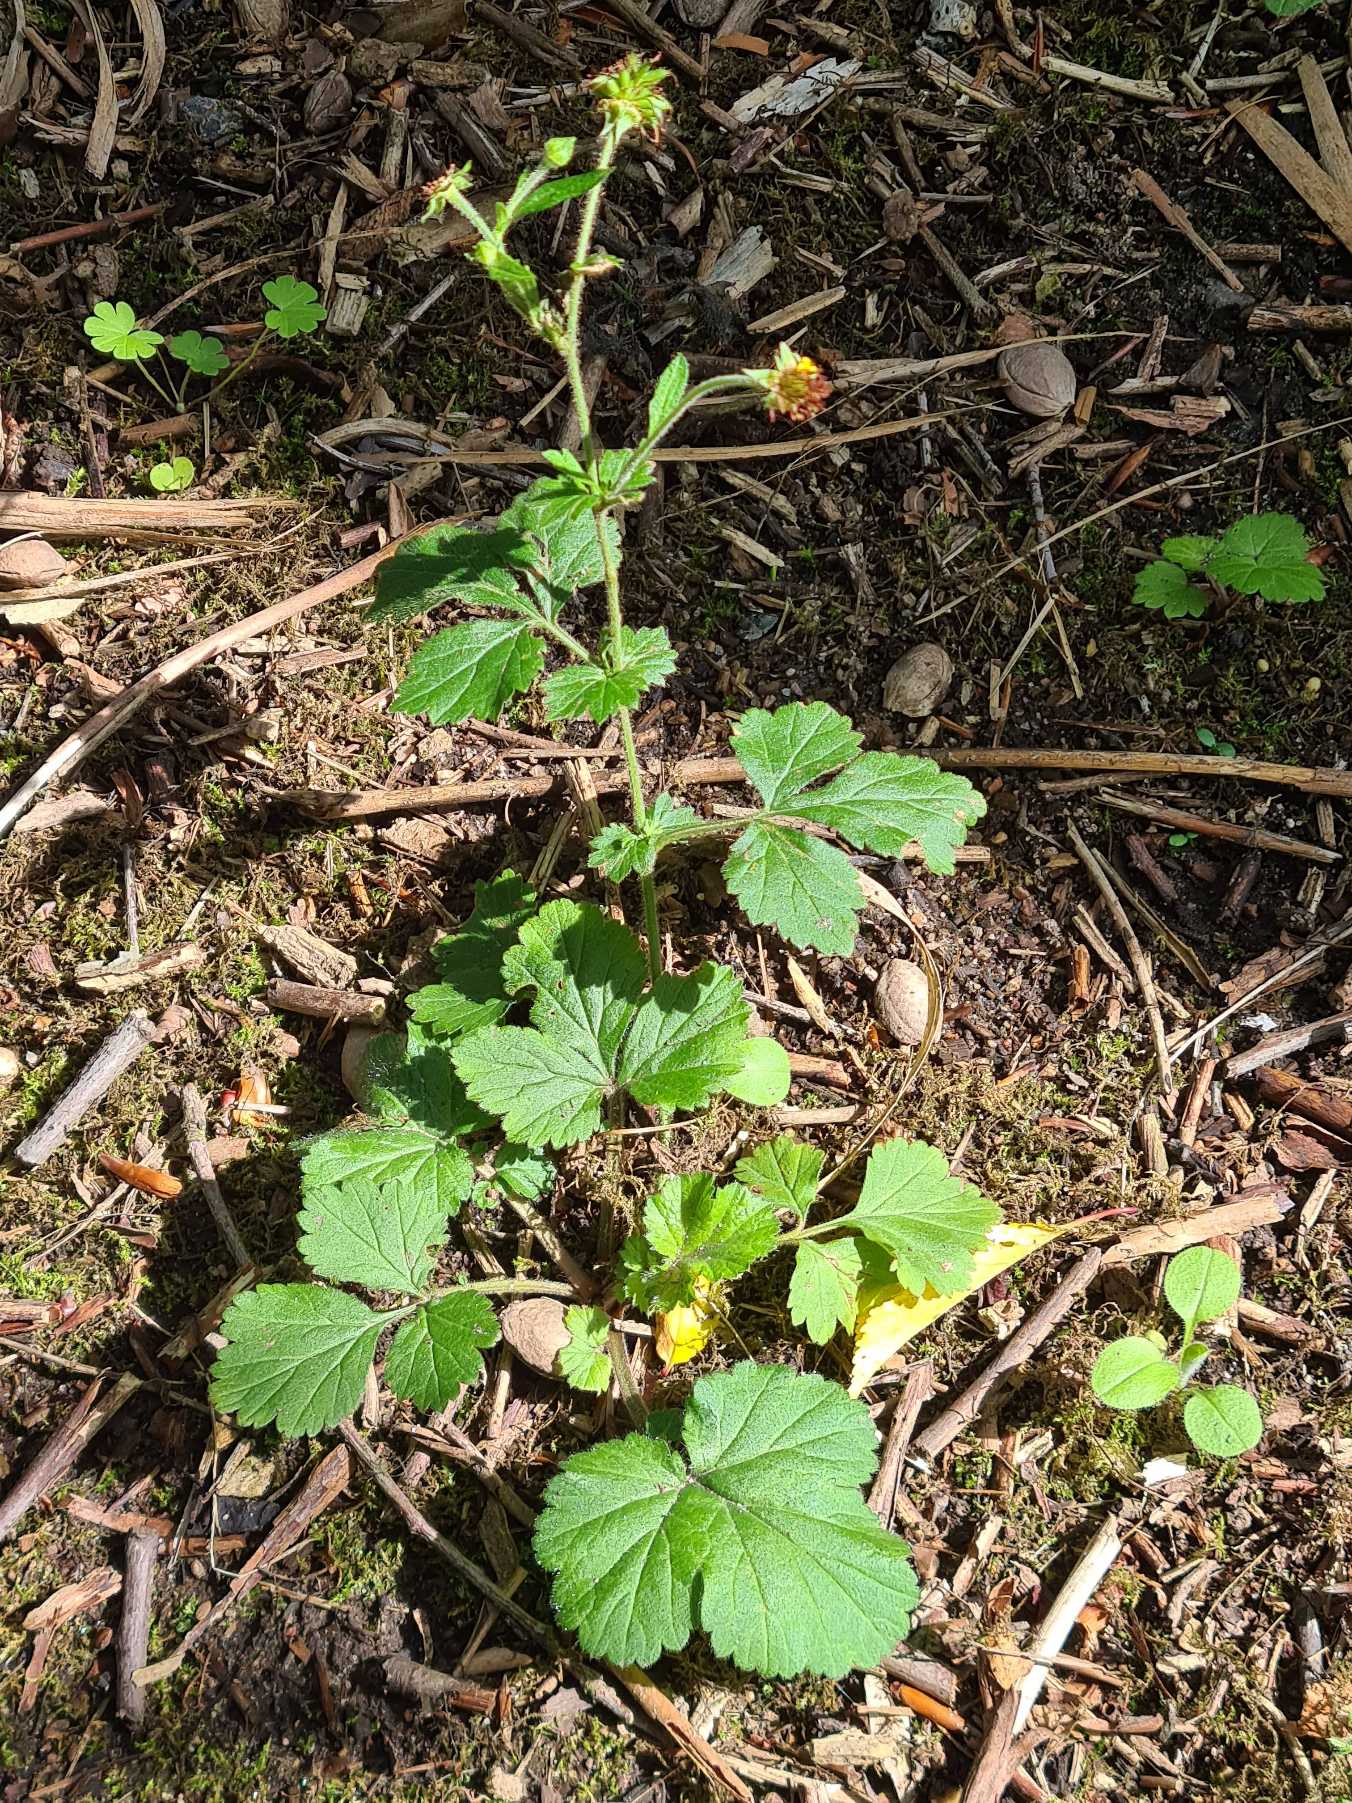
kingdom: Plantae
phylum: Tracheophyta
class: Magnoliopsida
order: Rosales
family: Rosaceae
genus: Geum
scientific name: Geum urbanum
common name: Feber-nellikerod
